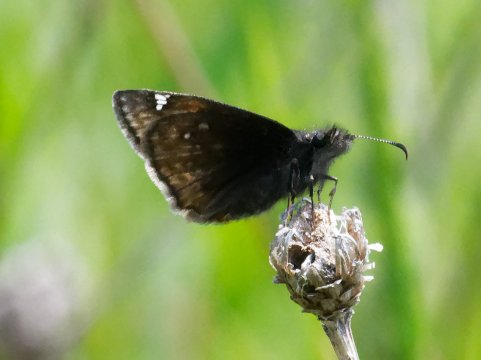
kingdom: Animalia
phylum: Arthropoda
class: Insecta
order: Lepidoptera
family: Hesperiidae
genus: Gesta
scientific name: Gesta
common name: Juvenal's Duskywing
